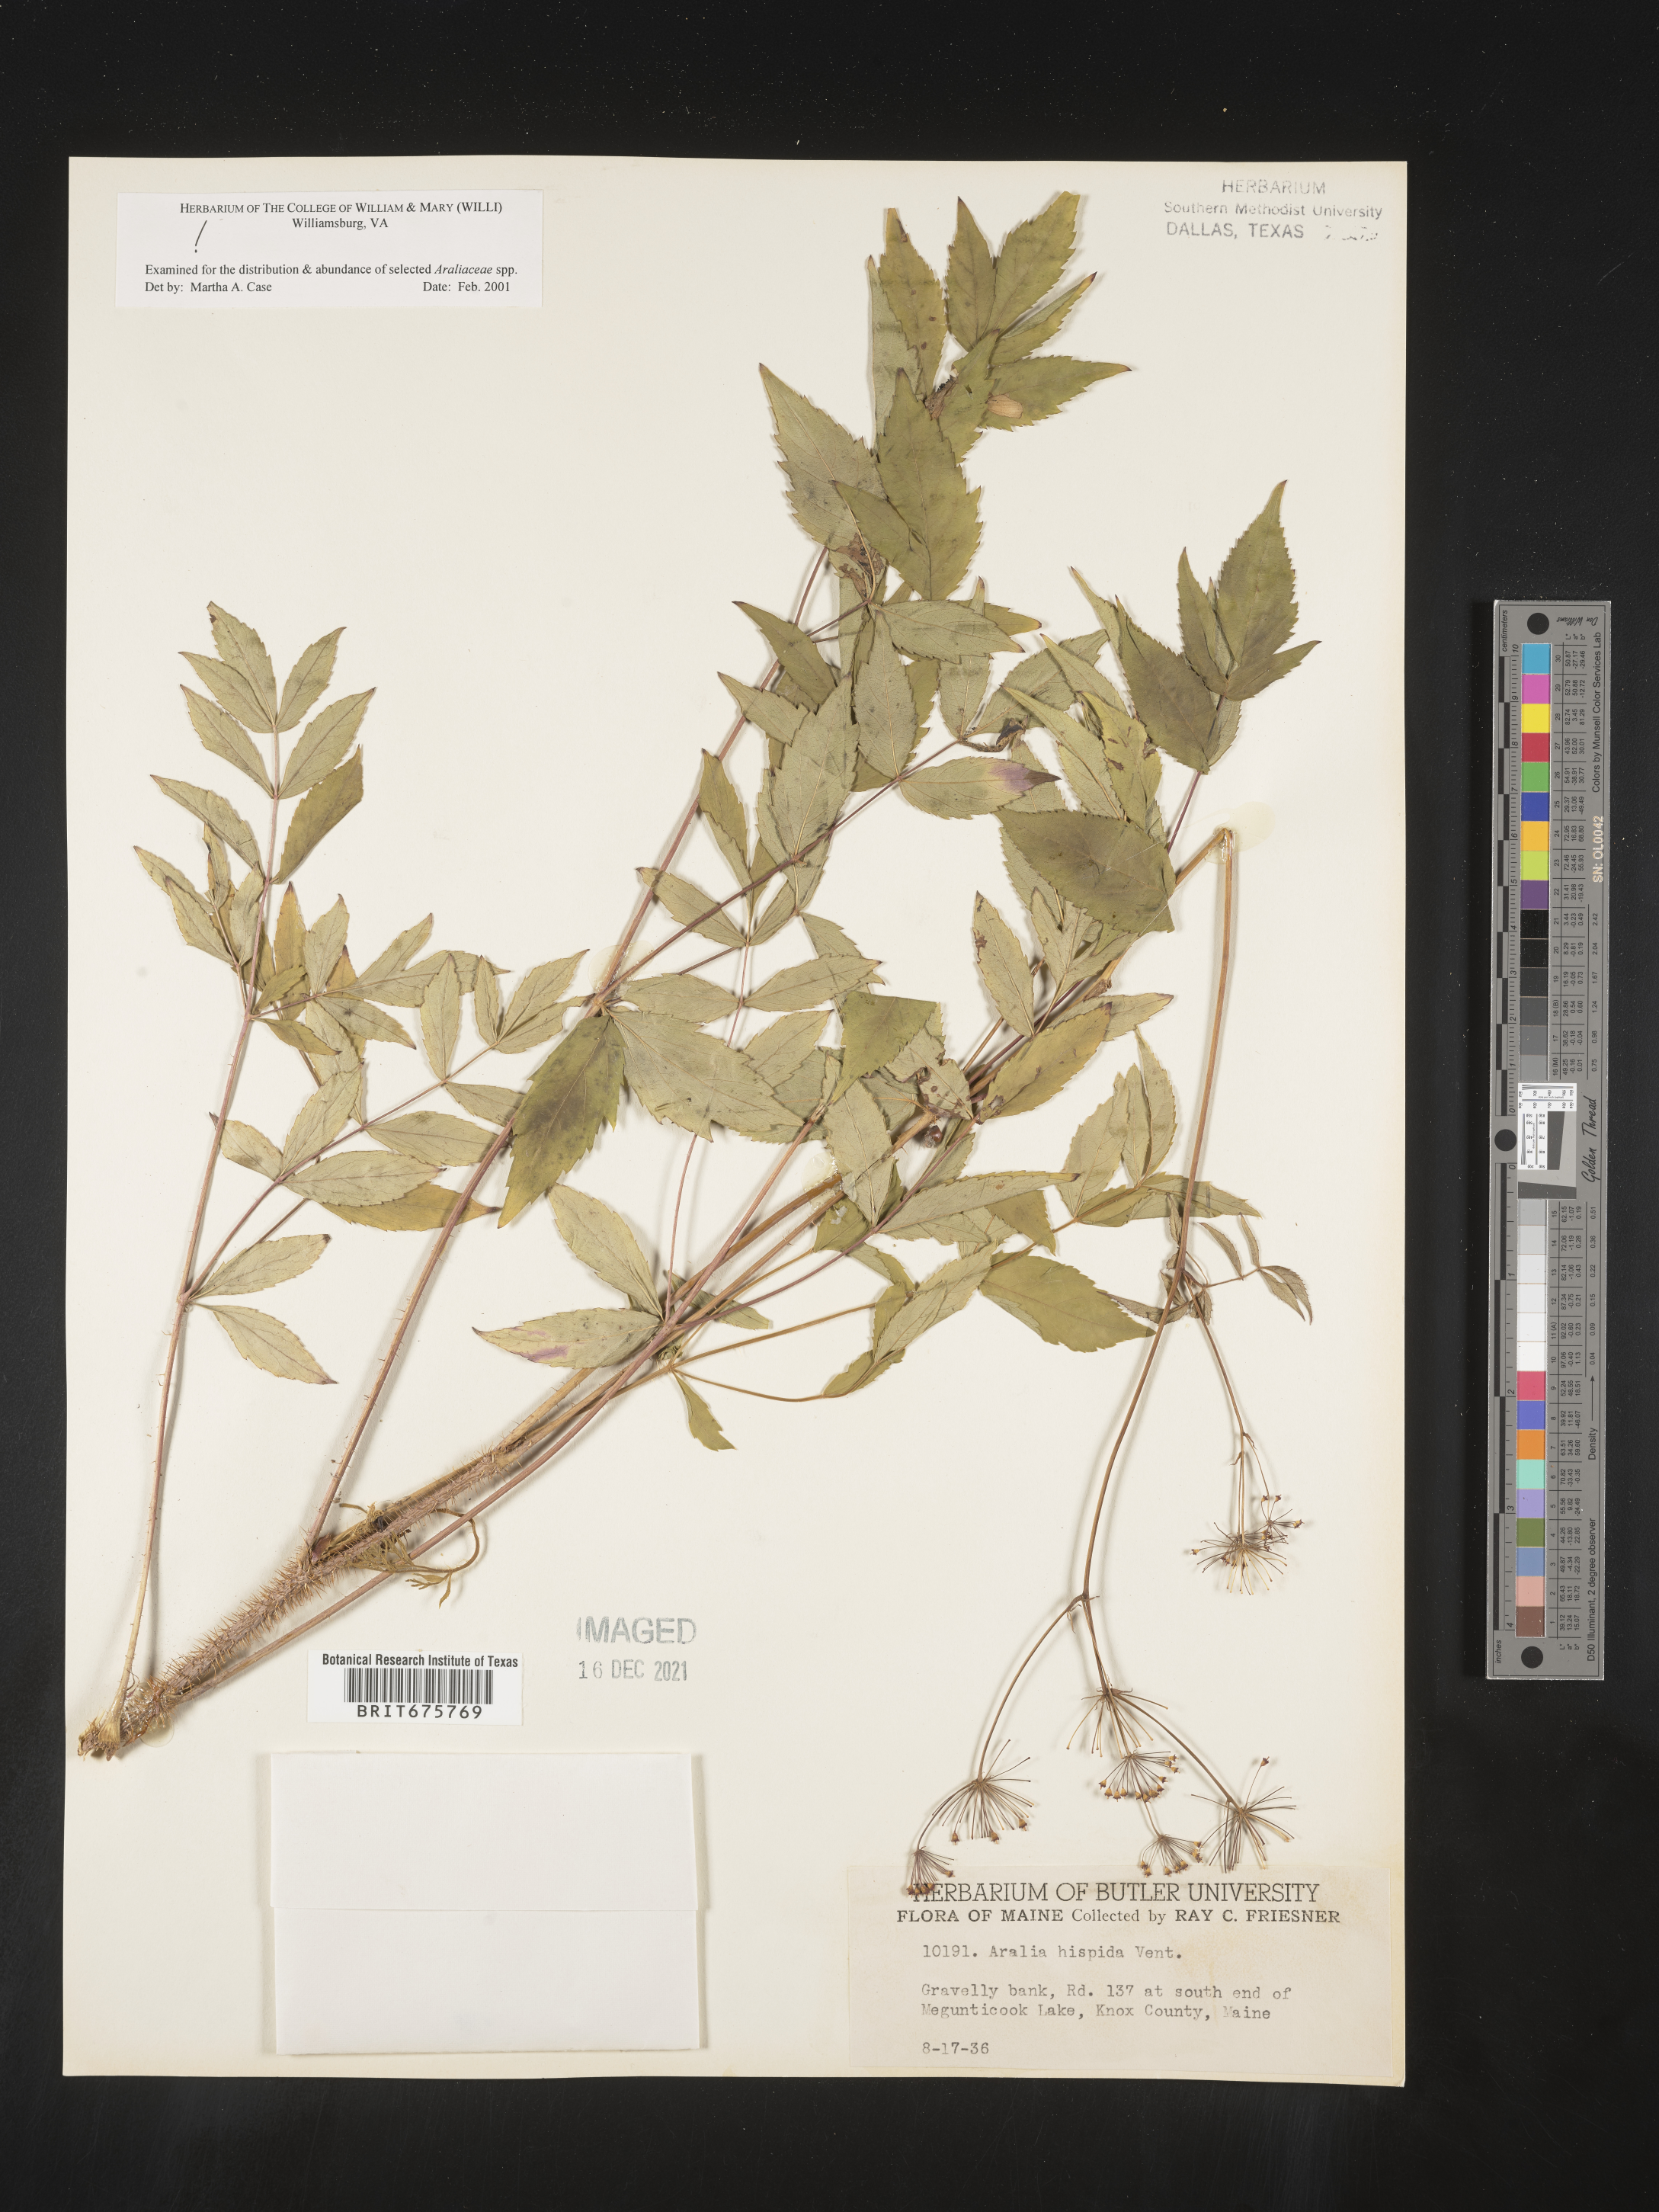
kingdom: Plantae
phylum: Tracheophyta
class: Magnoliopsida
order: Apiales
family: Araliaceae
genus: Aralia
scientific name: Aralia hispida
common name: Bristly sarsaparilla
